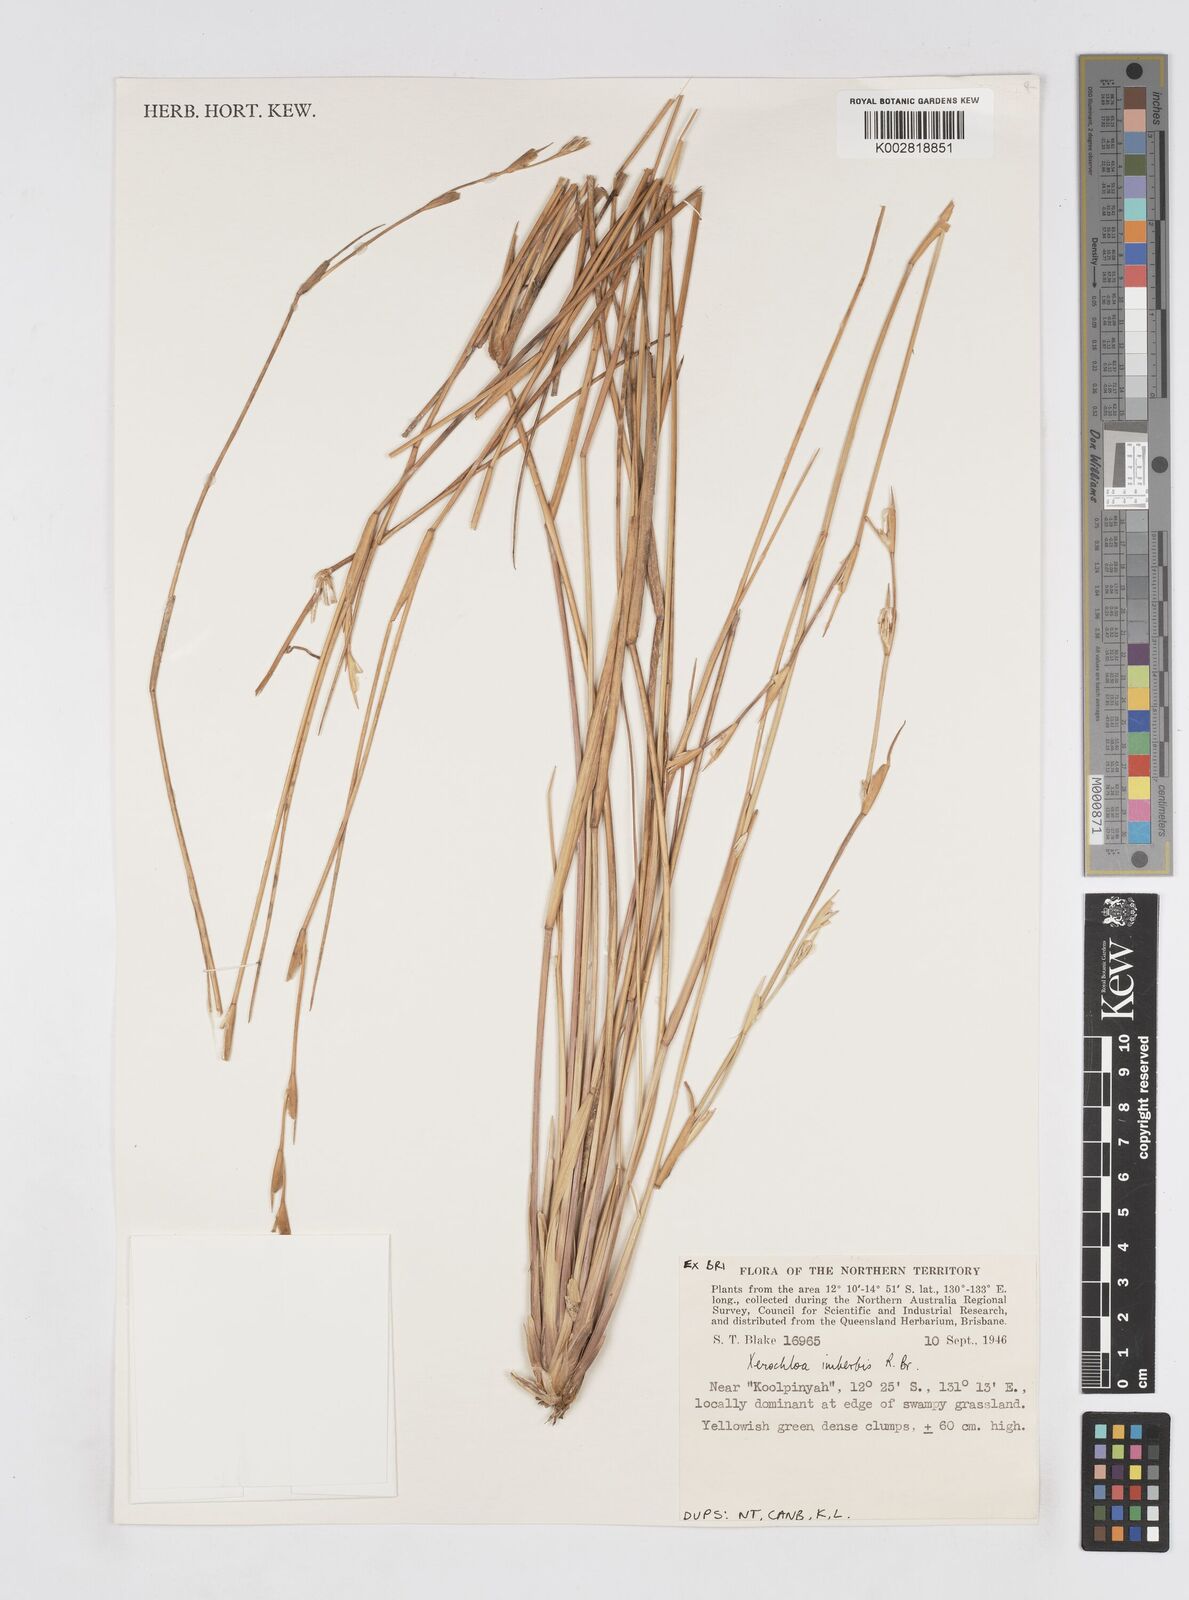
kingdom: Plantae
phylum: Tracheophyta
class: Liliopsida
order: Poales
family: Poaceae
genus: Xerochloa
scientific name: Xerochloa imberbis
